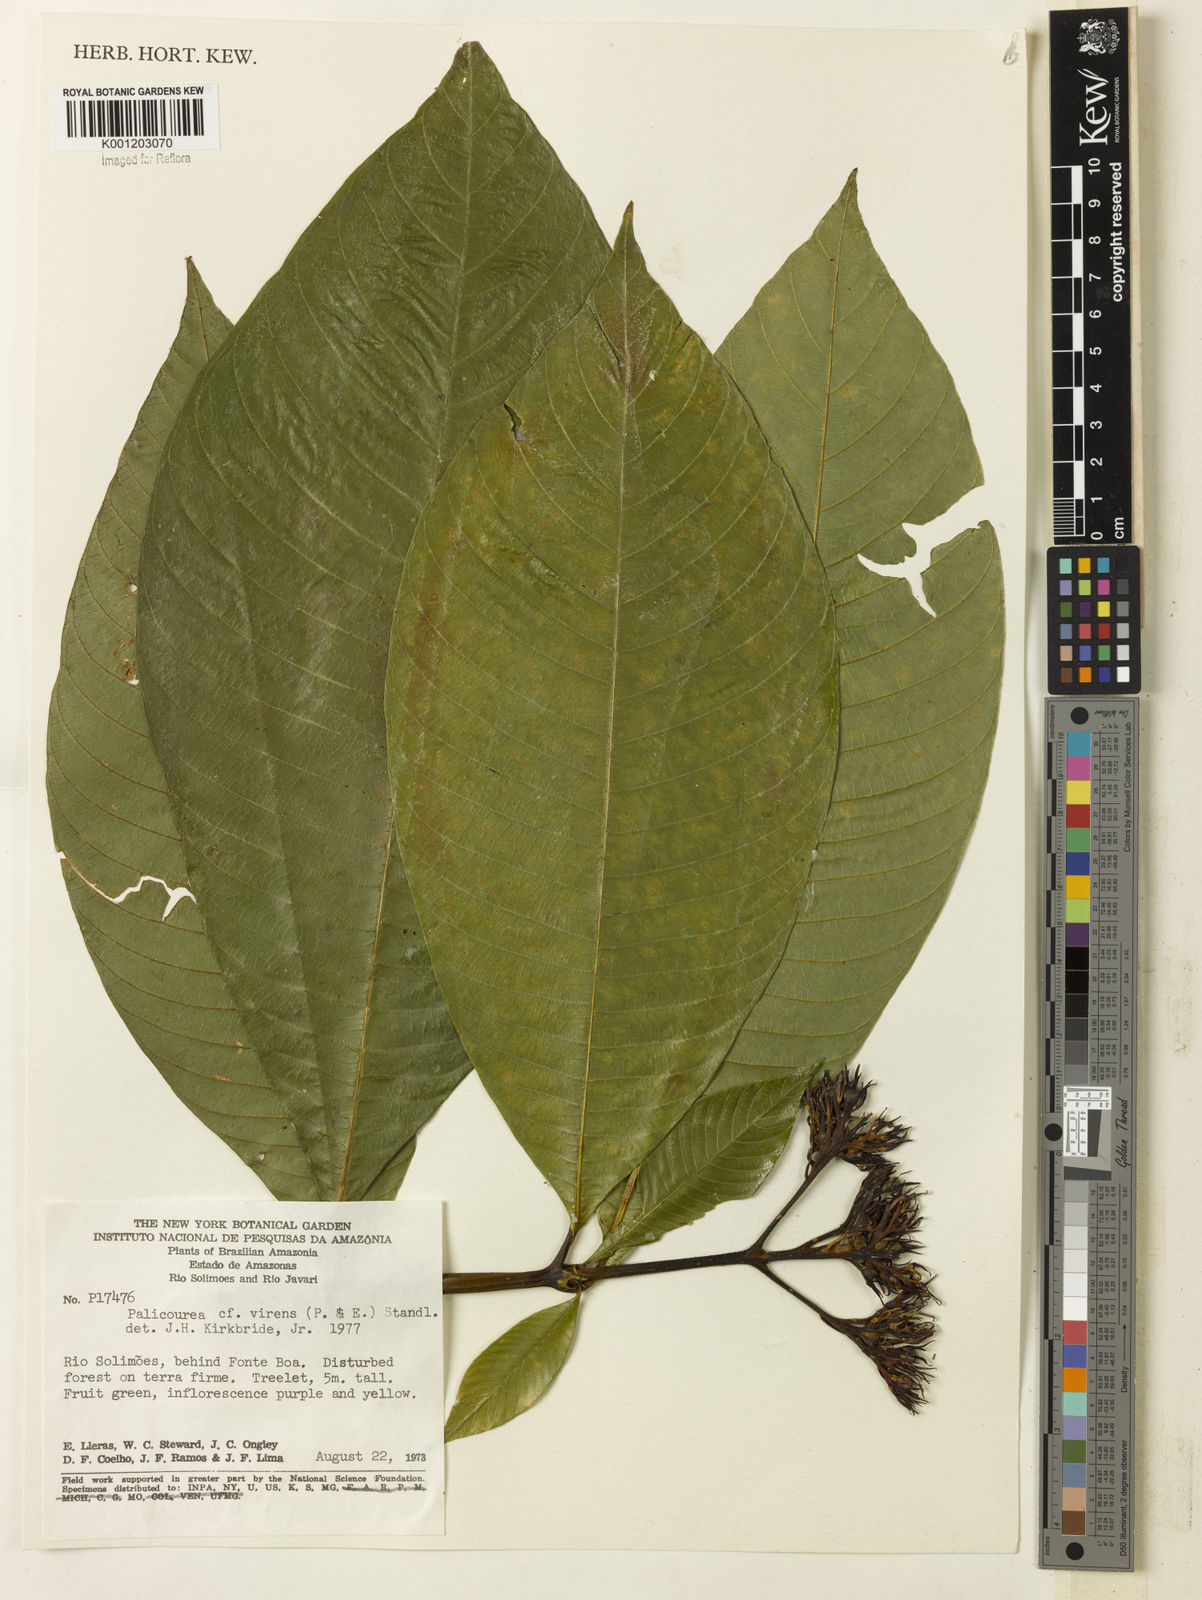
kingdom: Plantae
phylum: Tracheophyta
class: Magnoliopsida
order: Gentianales
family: Rubiaceae
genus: Palicourea
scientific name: Palicourea virens
